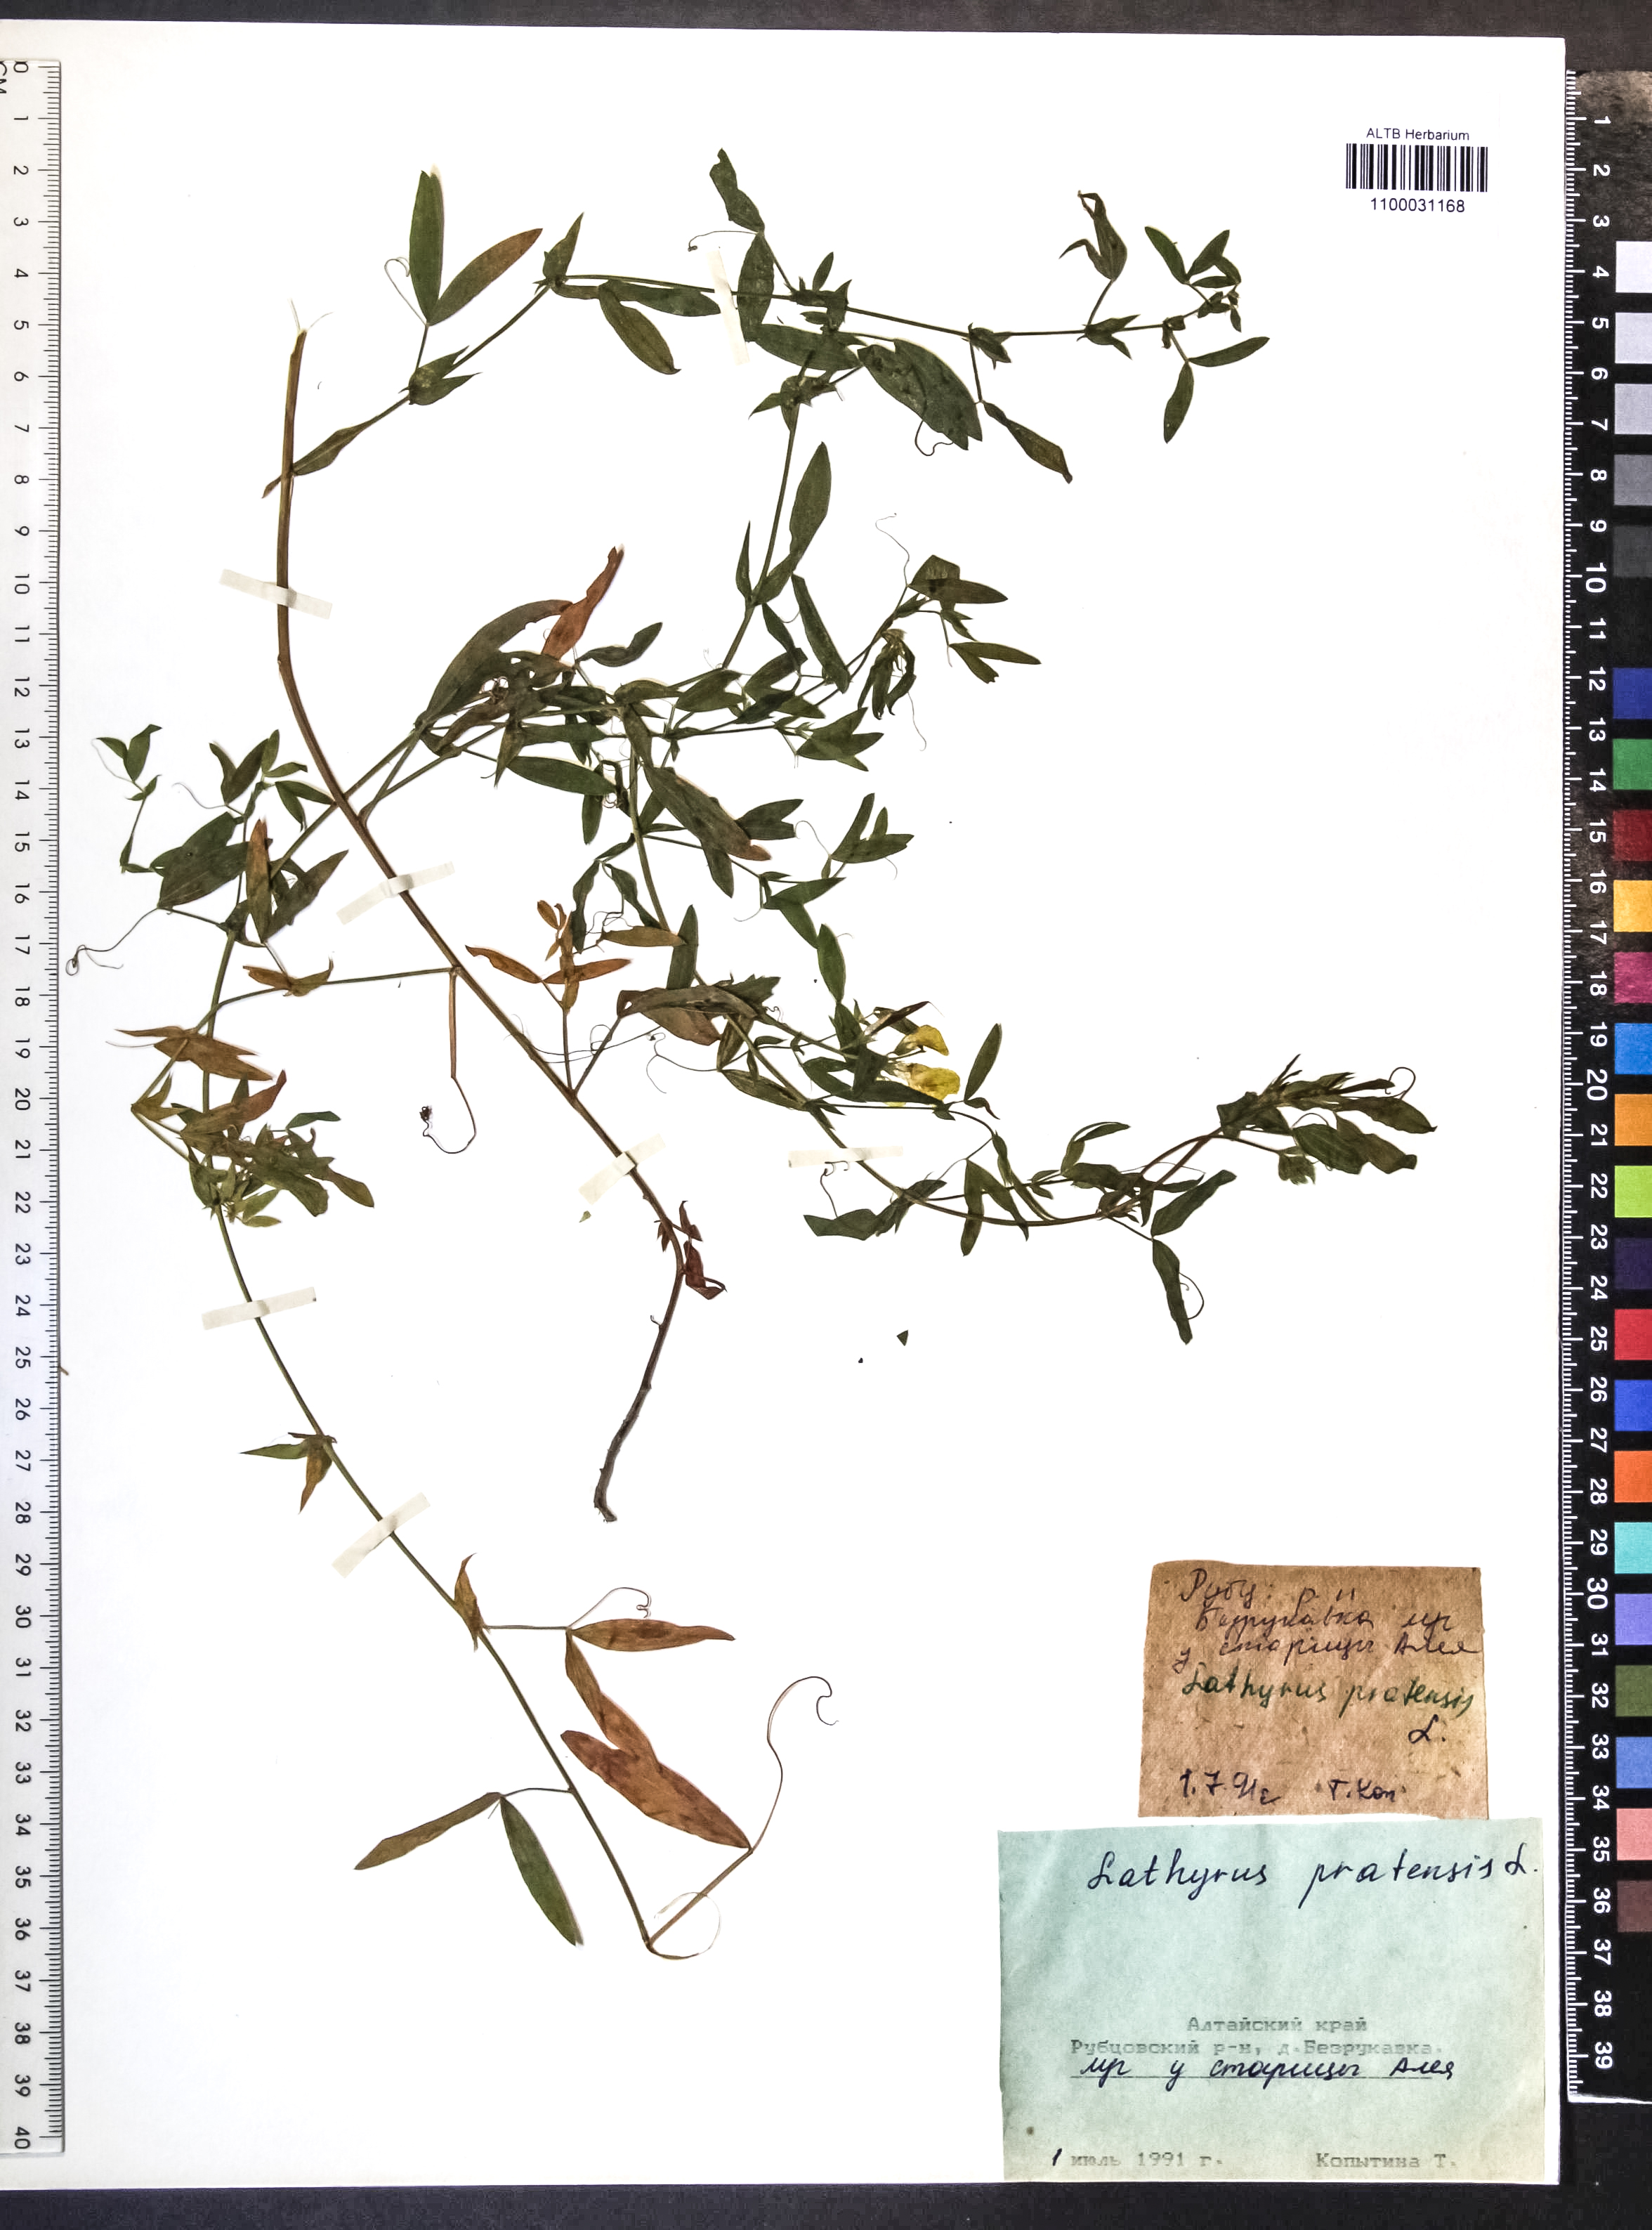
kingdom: Plantae
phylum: Tracheophyta
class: Magnoliopsida
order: Fabales
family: Fabaceae
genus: Lathyrus
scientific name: Lathyrus pratensis
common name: Meadow vetchling
